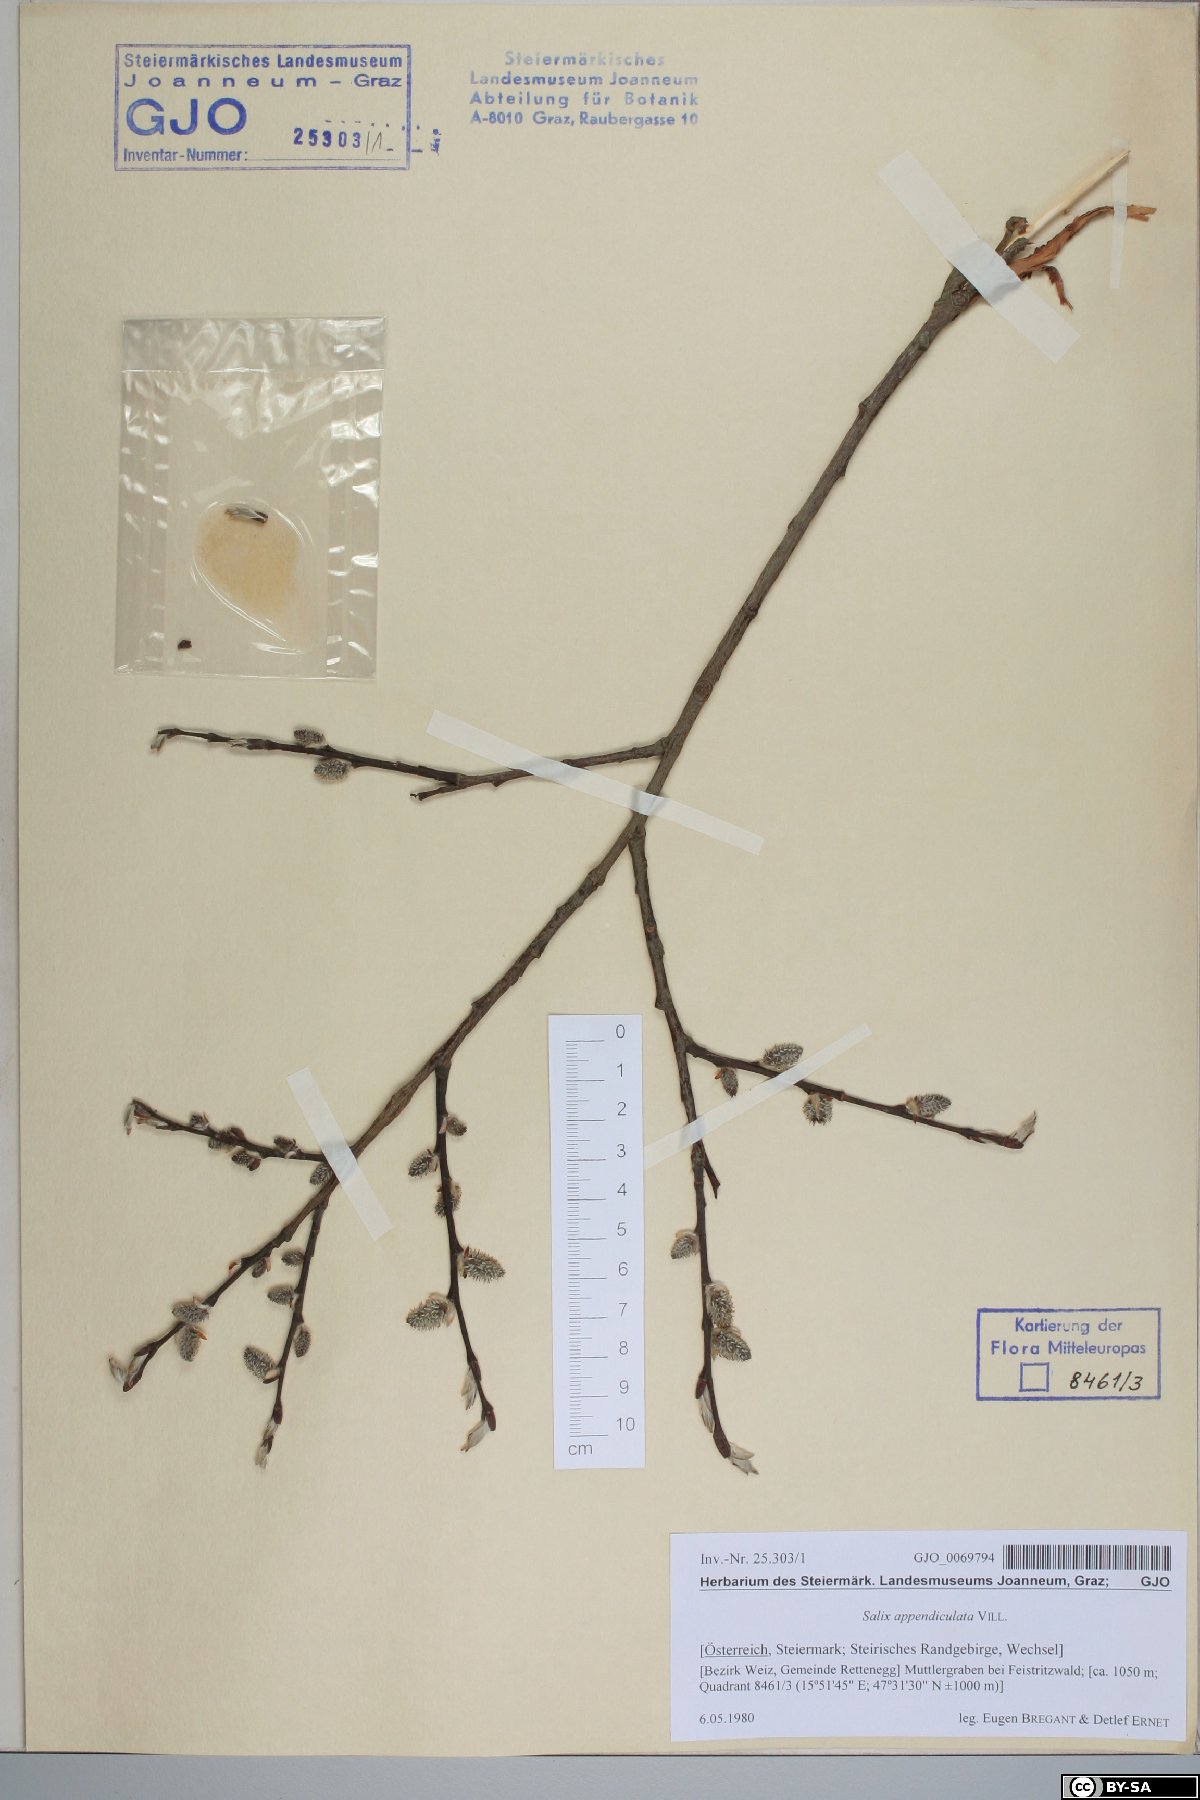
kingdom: Plantae
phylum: Tracheophyta
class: Magnoliopsida
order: Malpighiales
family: Salicaceae
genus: Salix
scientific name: Salix appendiculata
